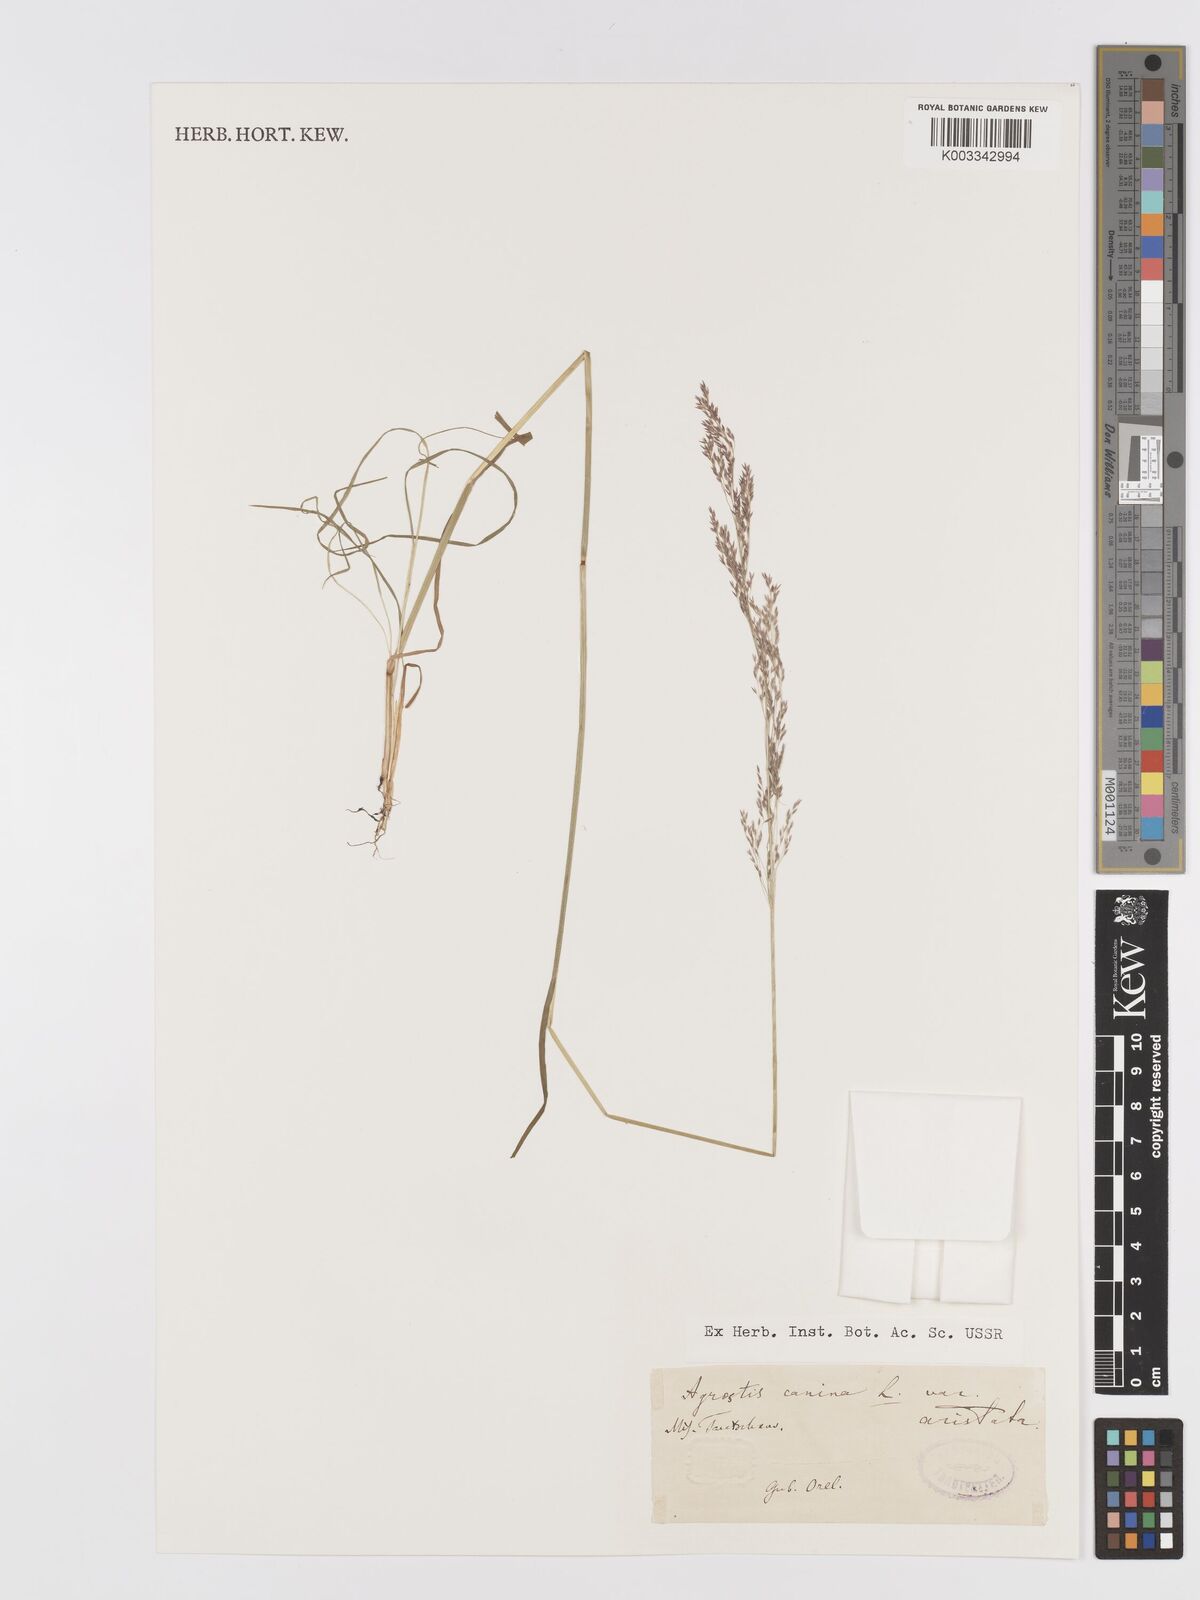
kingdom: Plantae
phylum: Tracheophyta
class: Liliopsida
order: Poales
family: Poaceae
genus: Agrostis
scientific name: Agrostis canina
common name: Velvet bent
